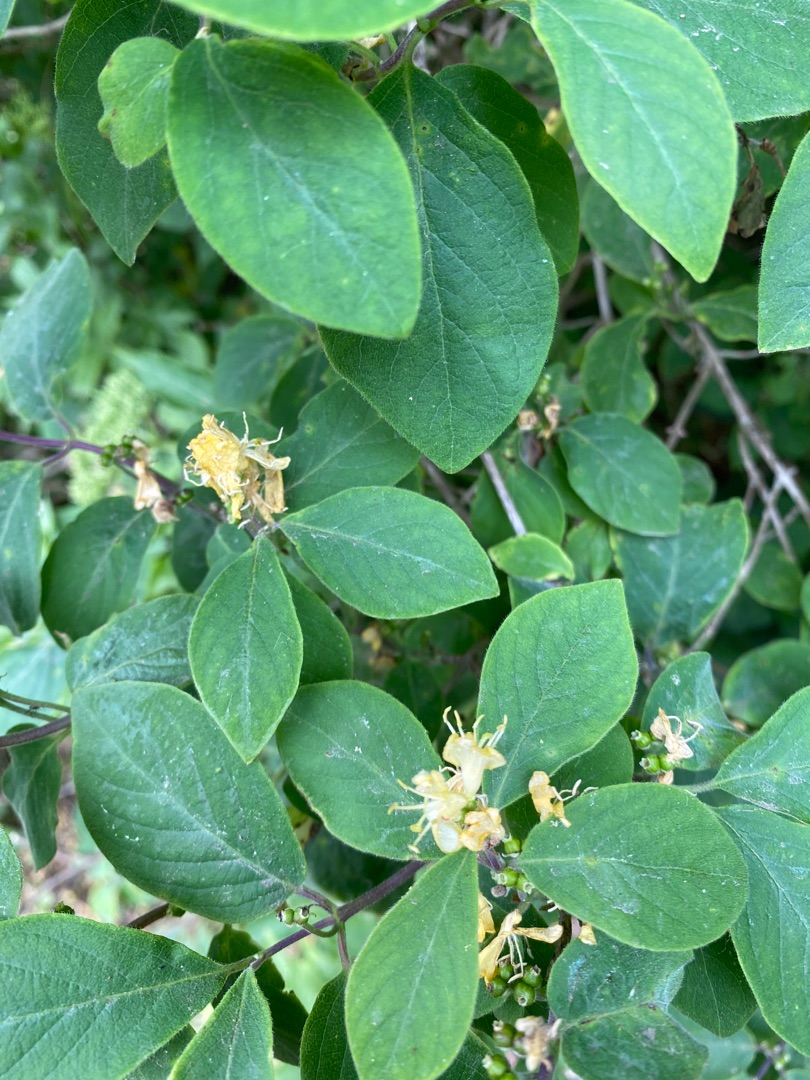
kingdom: Plantae
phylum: Tracheophyta
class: Magnoliopsida
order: Dipsacales
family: Caprifoliaceae
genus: Lonicera
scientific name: Lonicera xylosteum
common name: Dunet gedeblad
